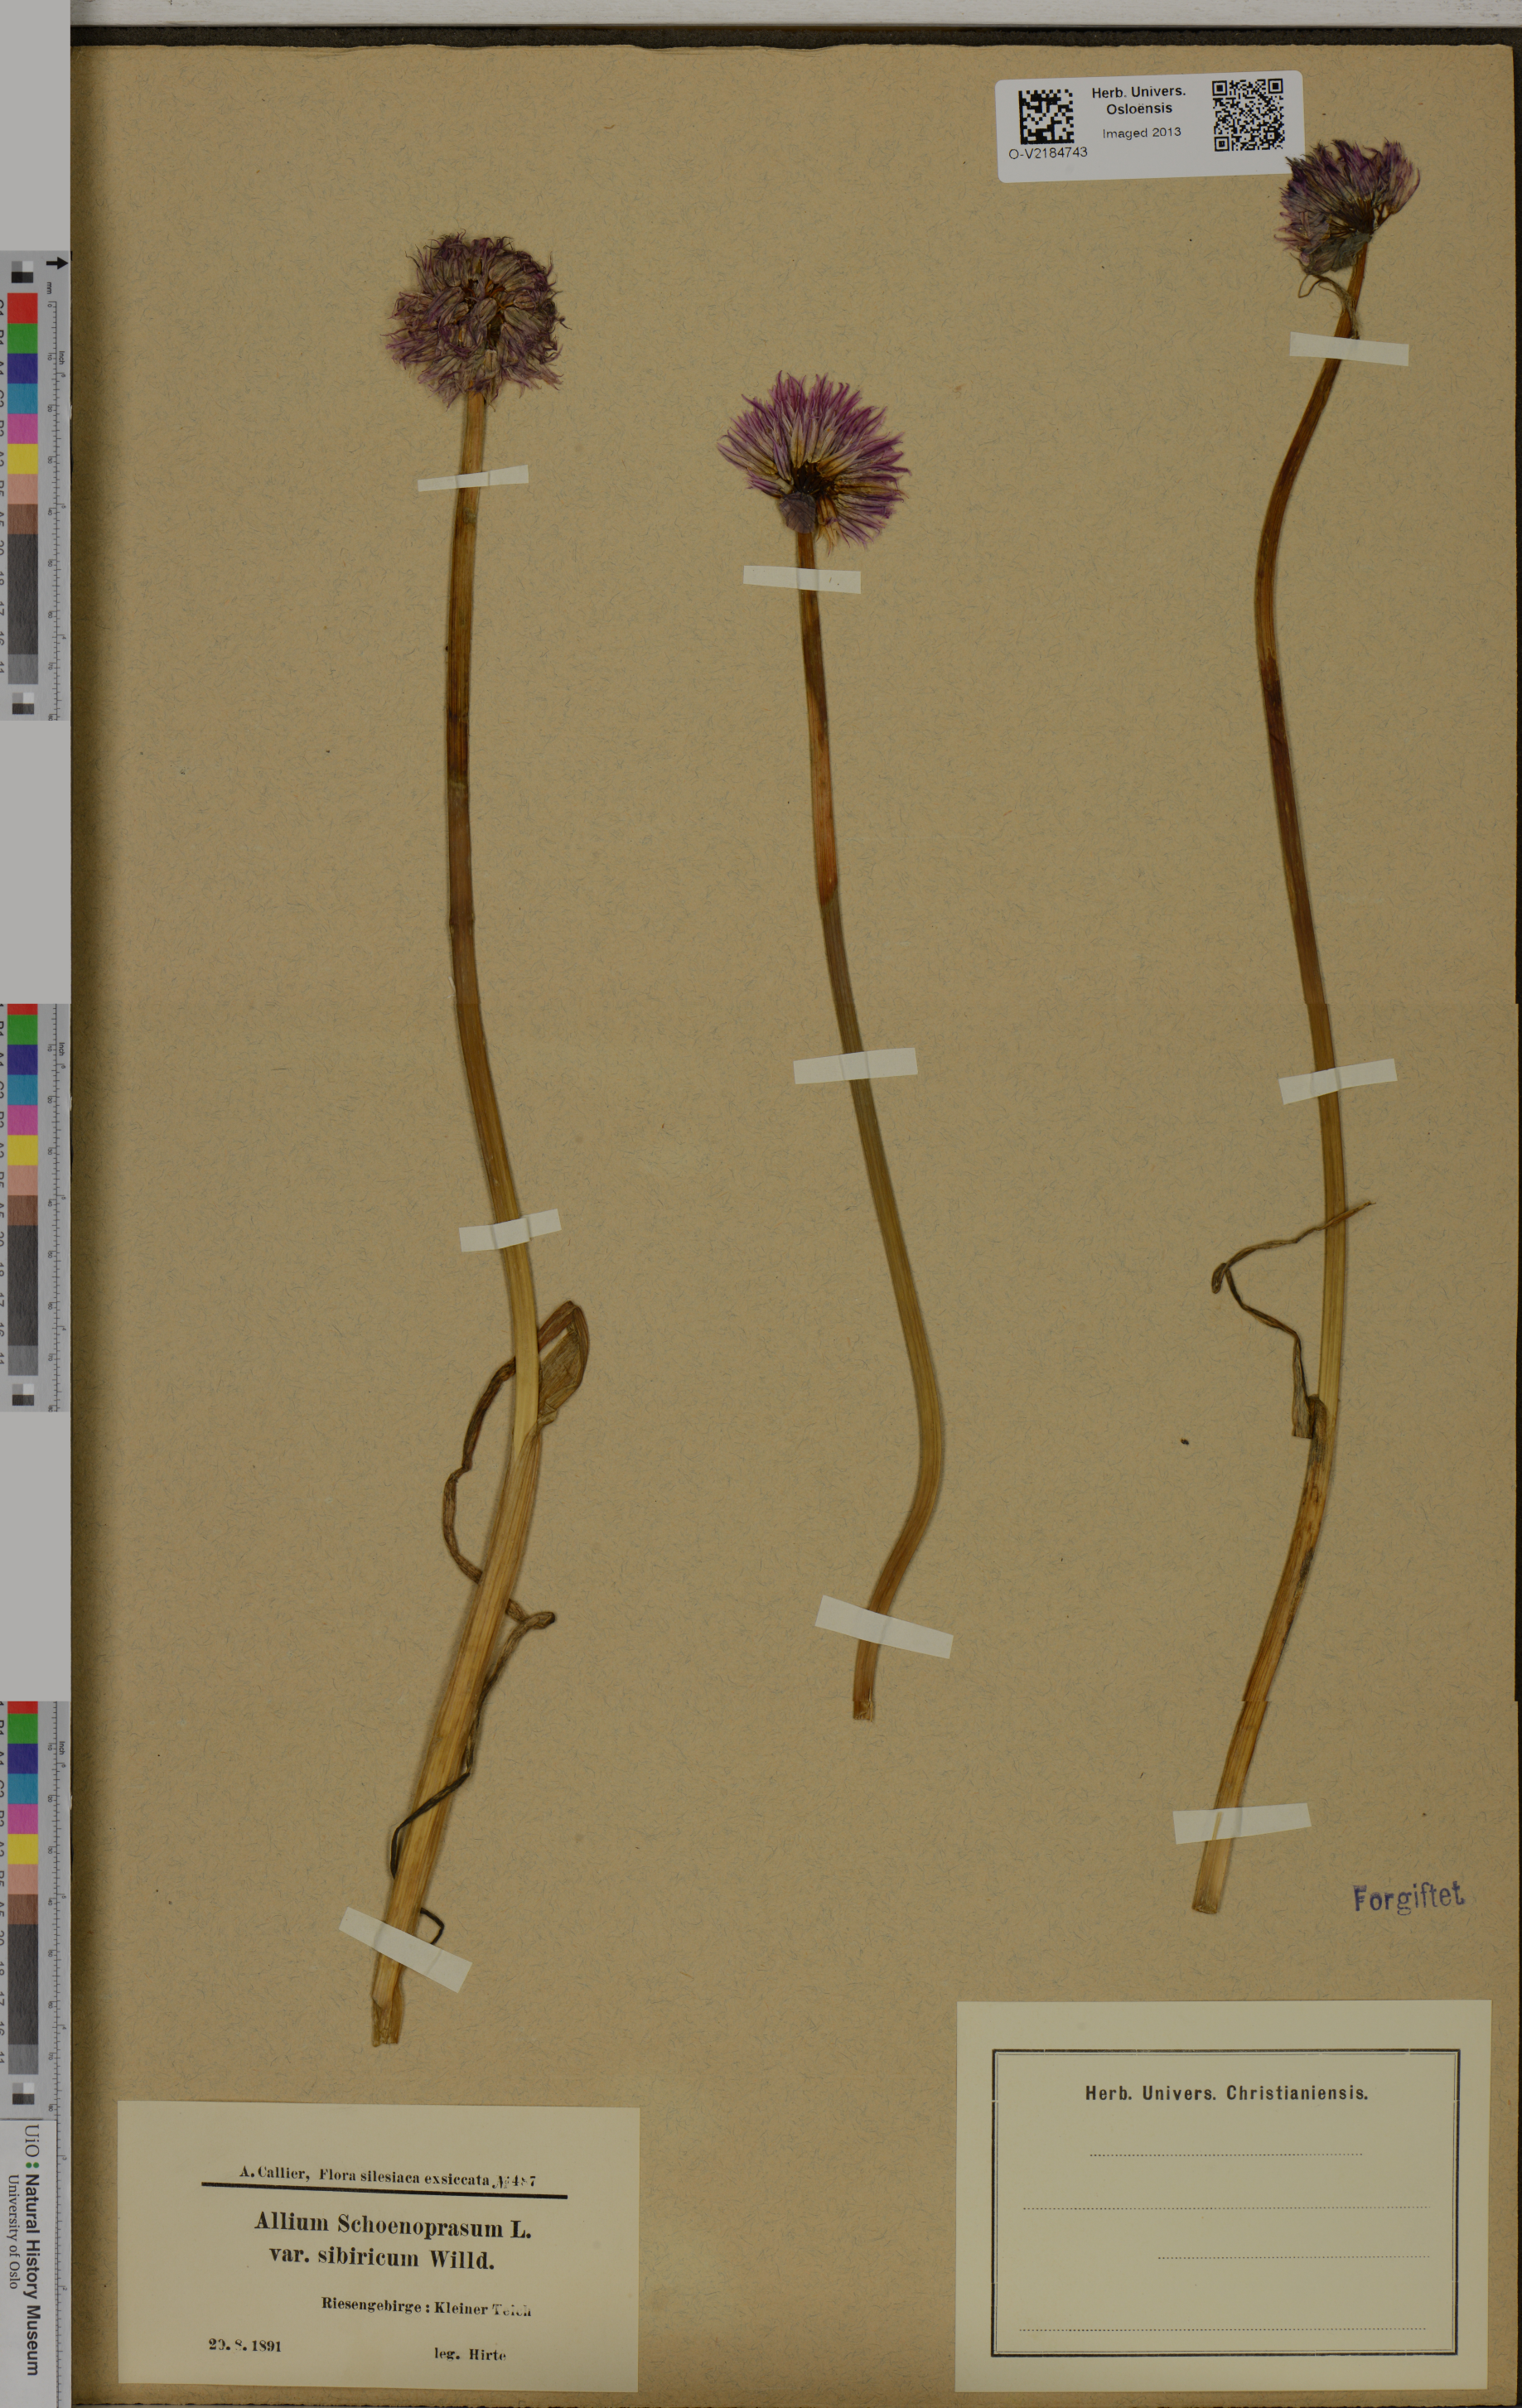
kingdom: Plantae
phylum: Tracheophyta
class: Liliopsida
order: Asparagales
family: Amaryllidaceae
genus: Allium
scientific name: Allium schoenoprasum
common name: Chives
